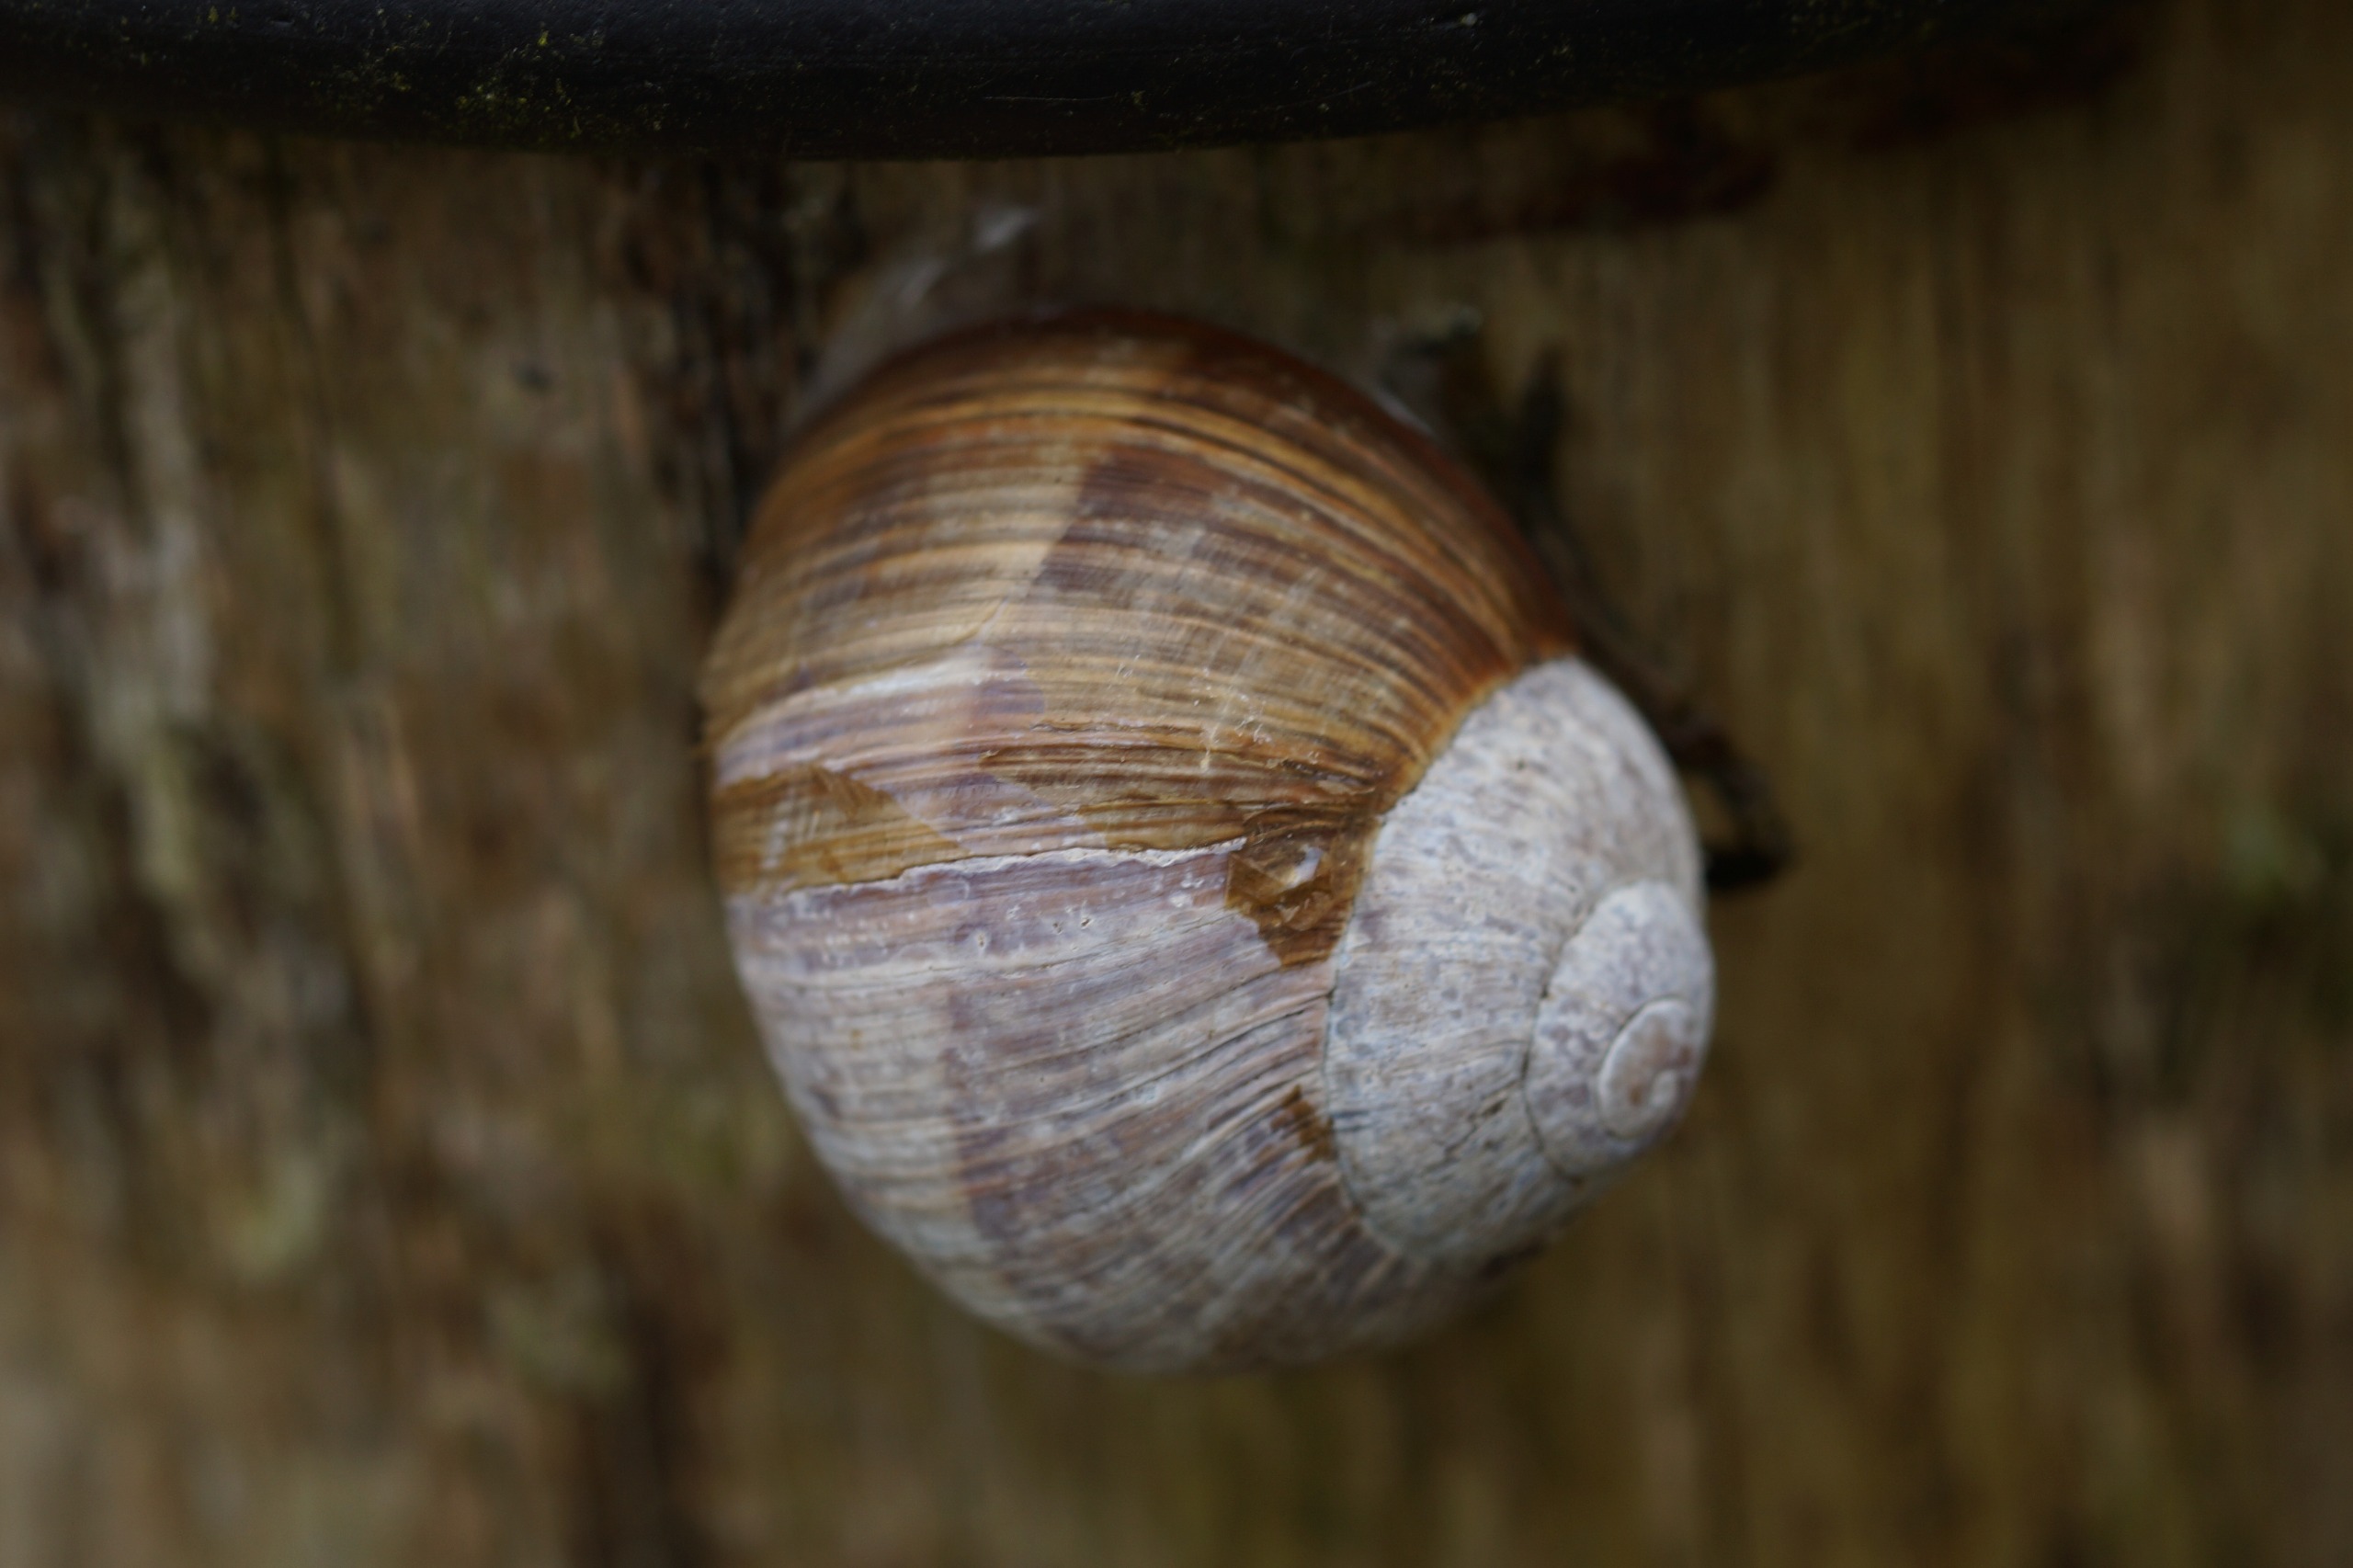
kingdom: Animalia
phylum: Mollusca
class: Gastropoda
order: Stylommatophora
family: Helicidae
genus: Helix
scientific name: Helix pomatia
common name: Vinbjergsnegl
